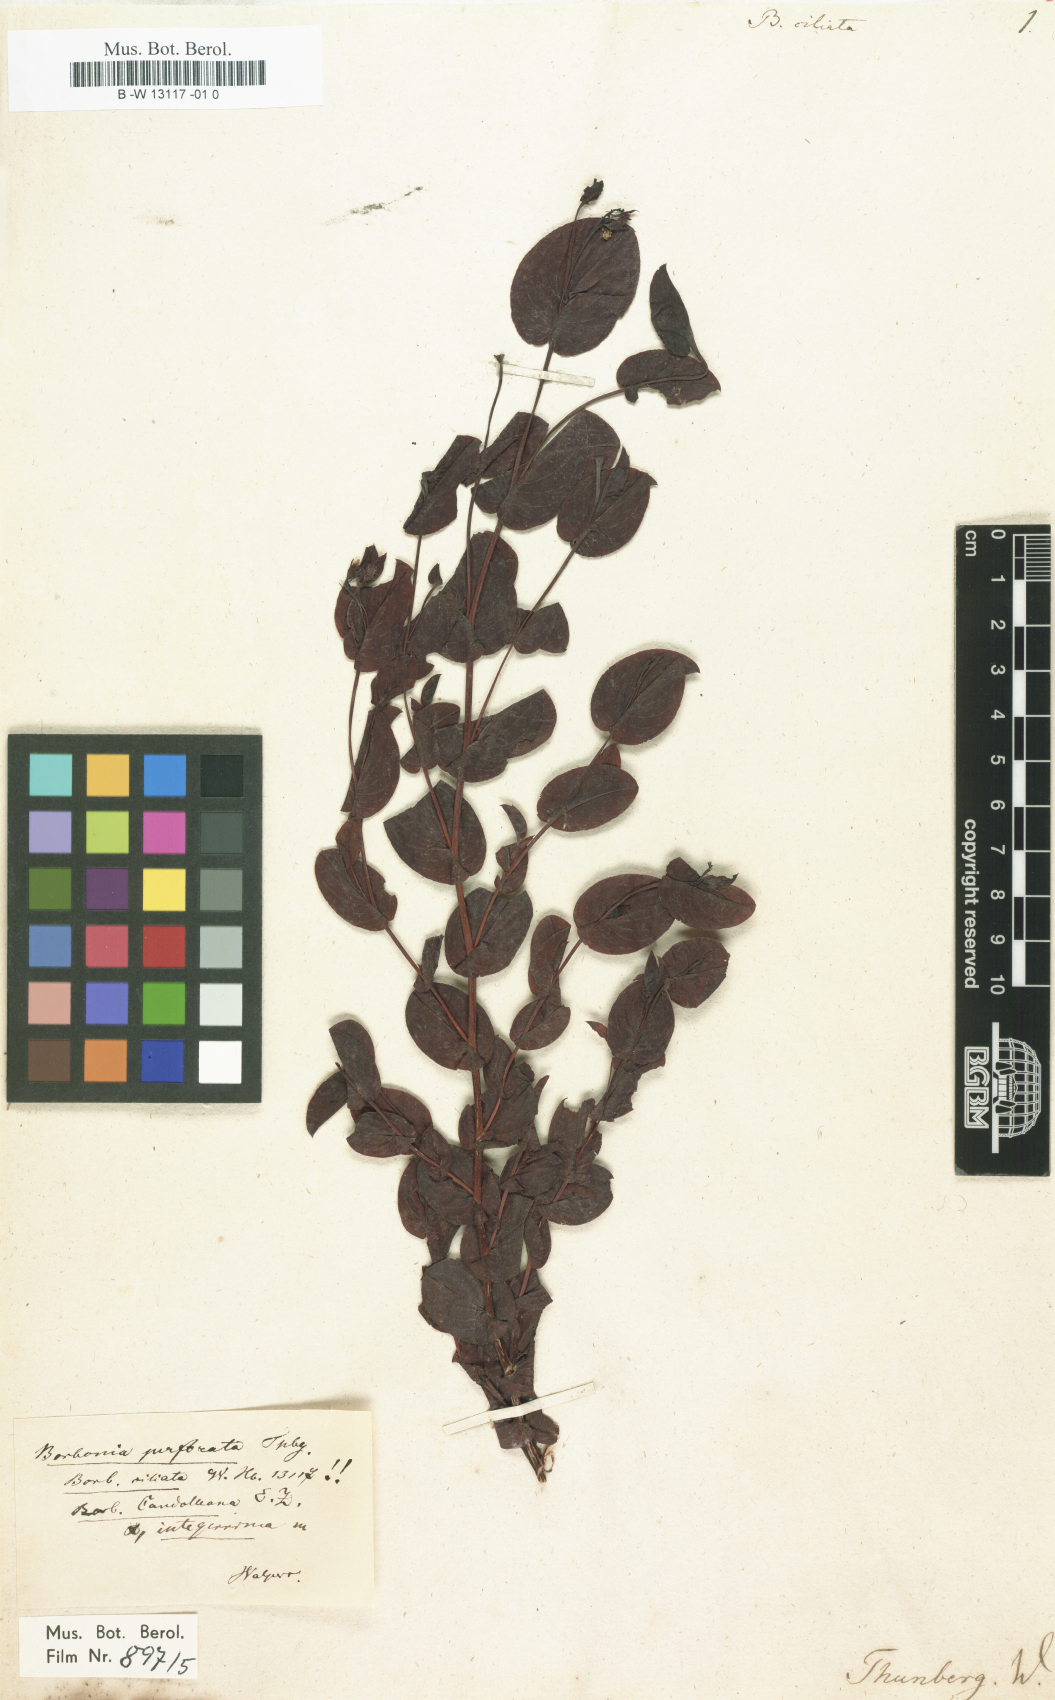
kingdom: Plantae
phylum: Tracheophyta
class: Magnoliopsida
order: Fabales
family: Fabaceae
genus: Aspalathus
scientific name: Aspalathus perforata
